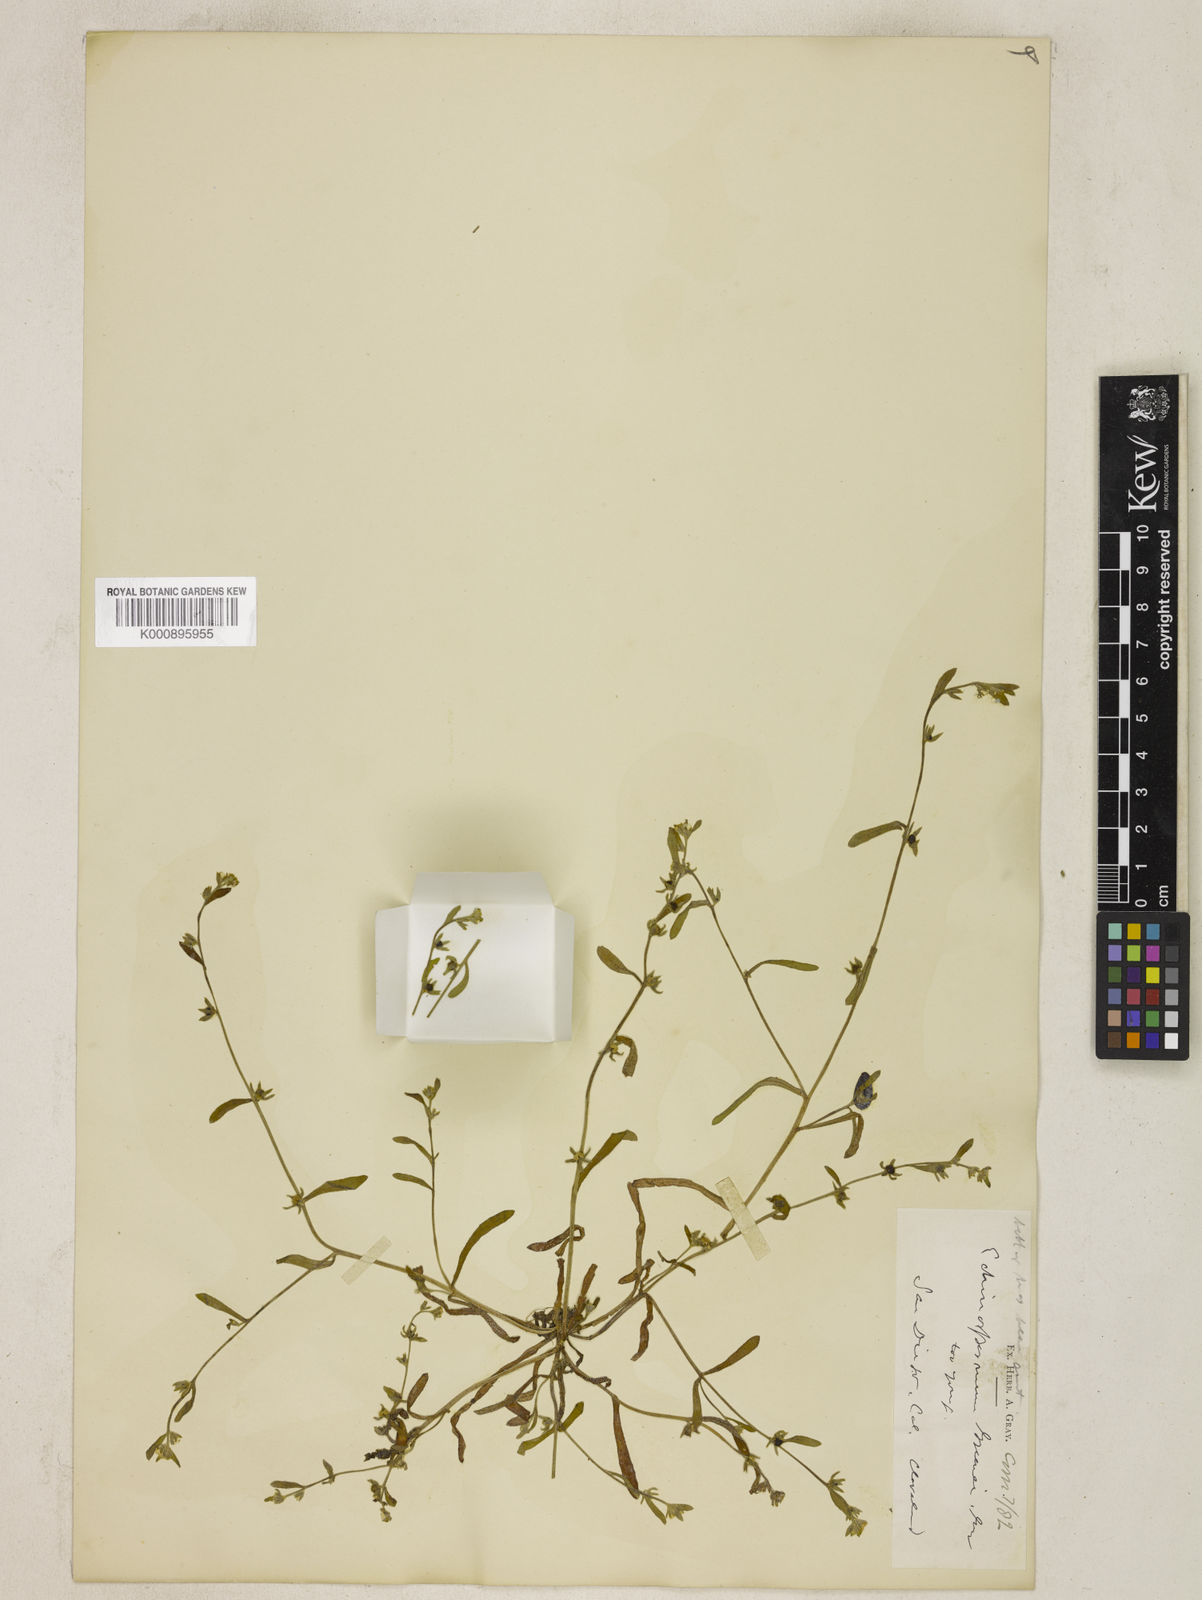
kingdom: Plantae
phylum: Tracheophyta
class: Magnoliopsida
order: Boraginales
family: Boraginaceae
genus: Plagiobothrys
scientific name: Plagiobothrys greenei
